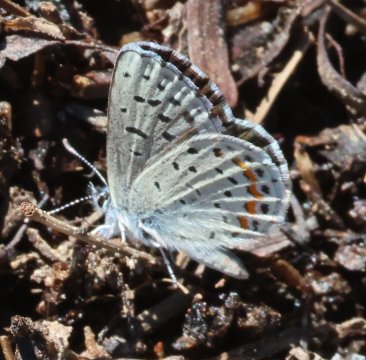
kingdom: Animalia
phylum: Arthropoda
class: Insecta
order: Lepidoptera
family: Lycaenidae
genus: Euphilotes
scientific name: Euphilotes enoptes
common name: Dotted Blue
